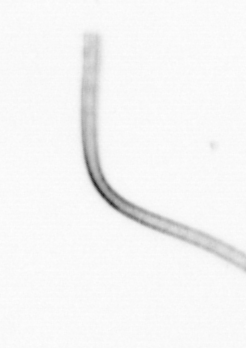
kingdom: Chromista
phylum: Ochrophyta
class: Bacillariophyceae
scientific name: Bacillariophyceae
